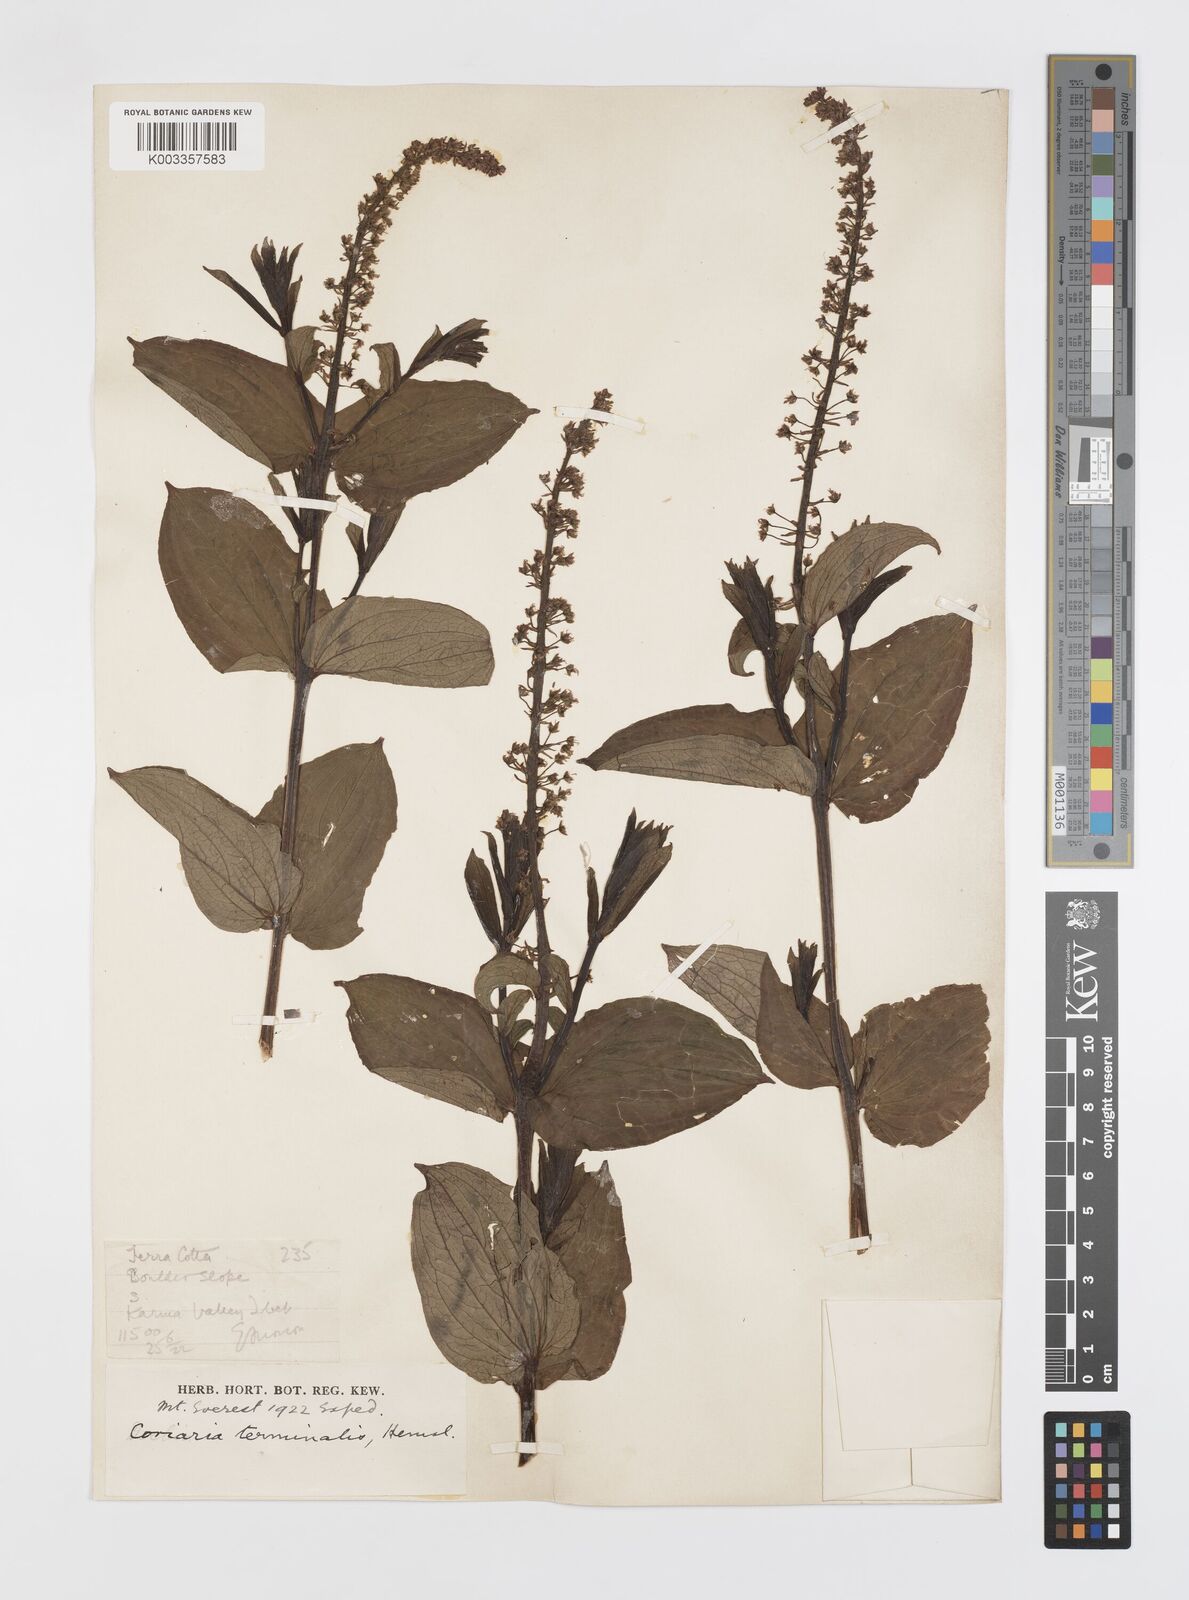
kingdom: Plantae
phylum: Tracheophyta
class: Magnoliopsida
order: Cucurbitales
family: Coriariaceae
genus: Coriaria
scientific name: Coriaria terminalis
